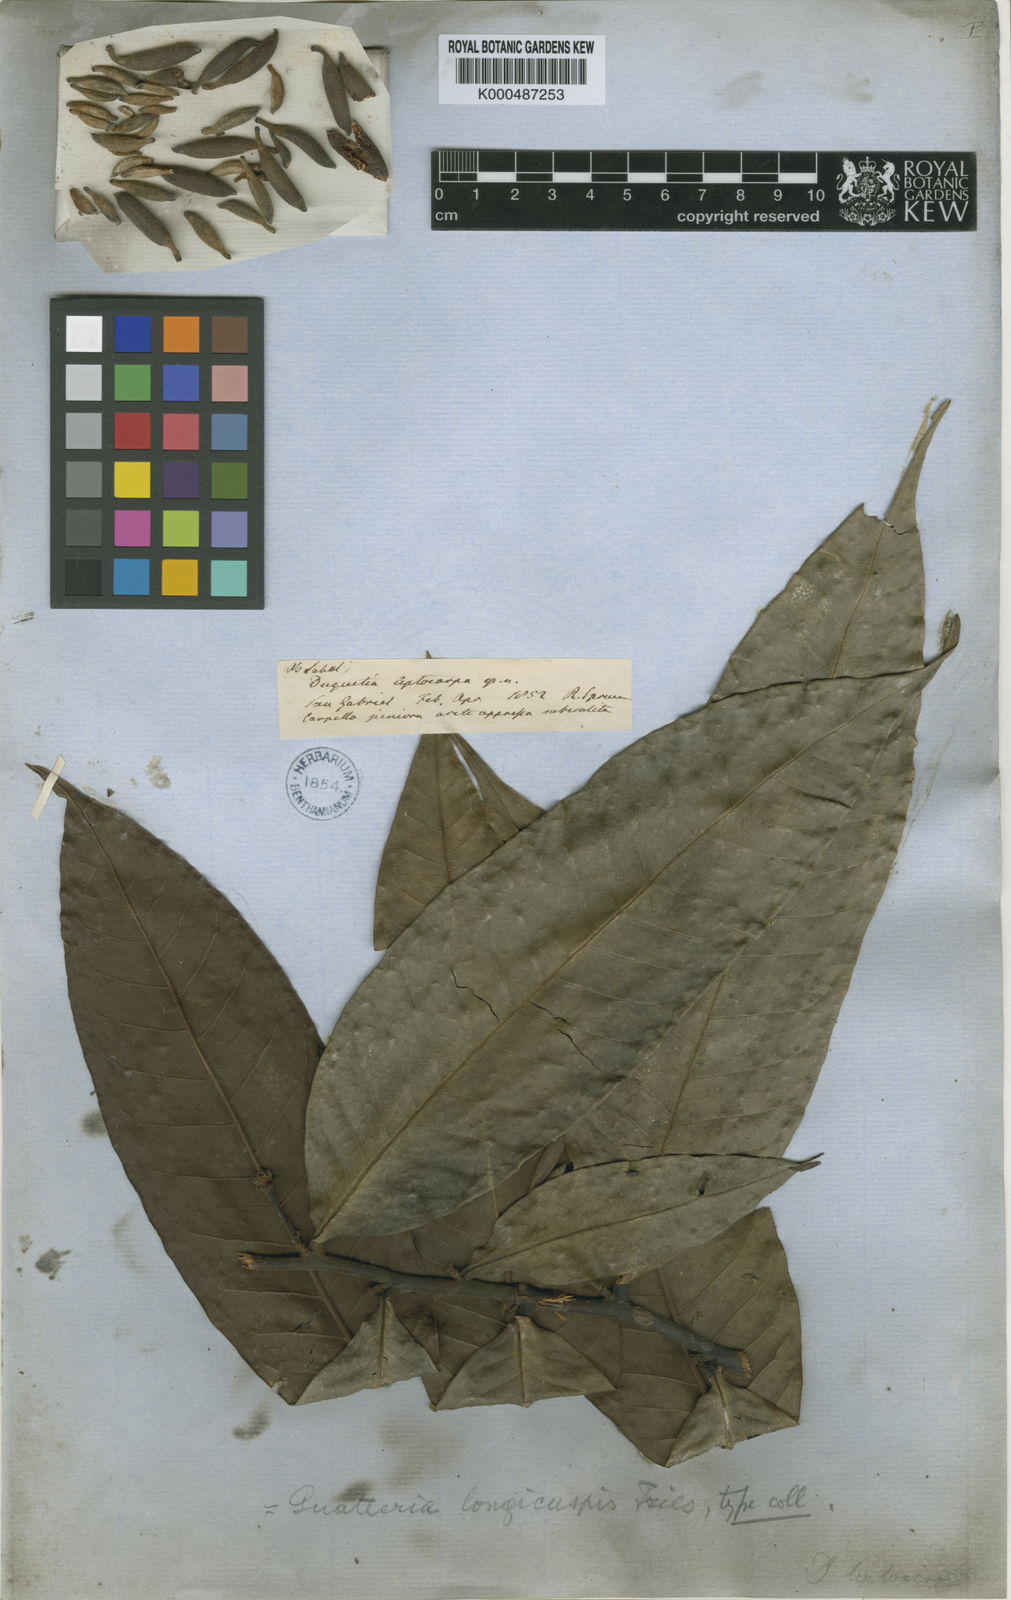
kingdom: Plantae
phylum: Tracheophyta
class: Magnoliopsida
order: Magnoliales
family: Annonaceae
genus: Guatteria
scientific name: Guatteria longicuspis
